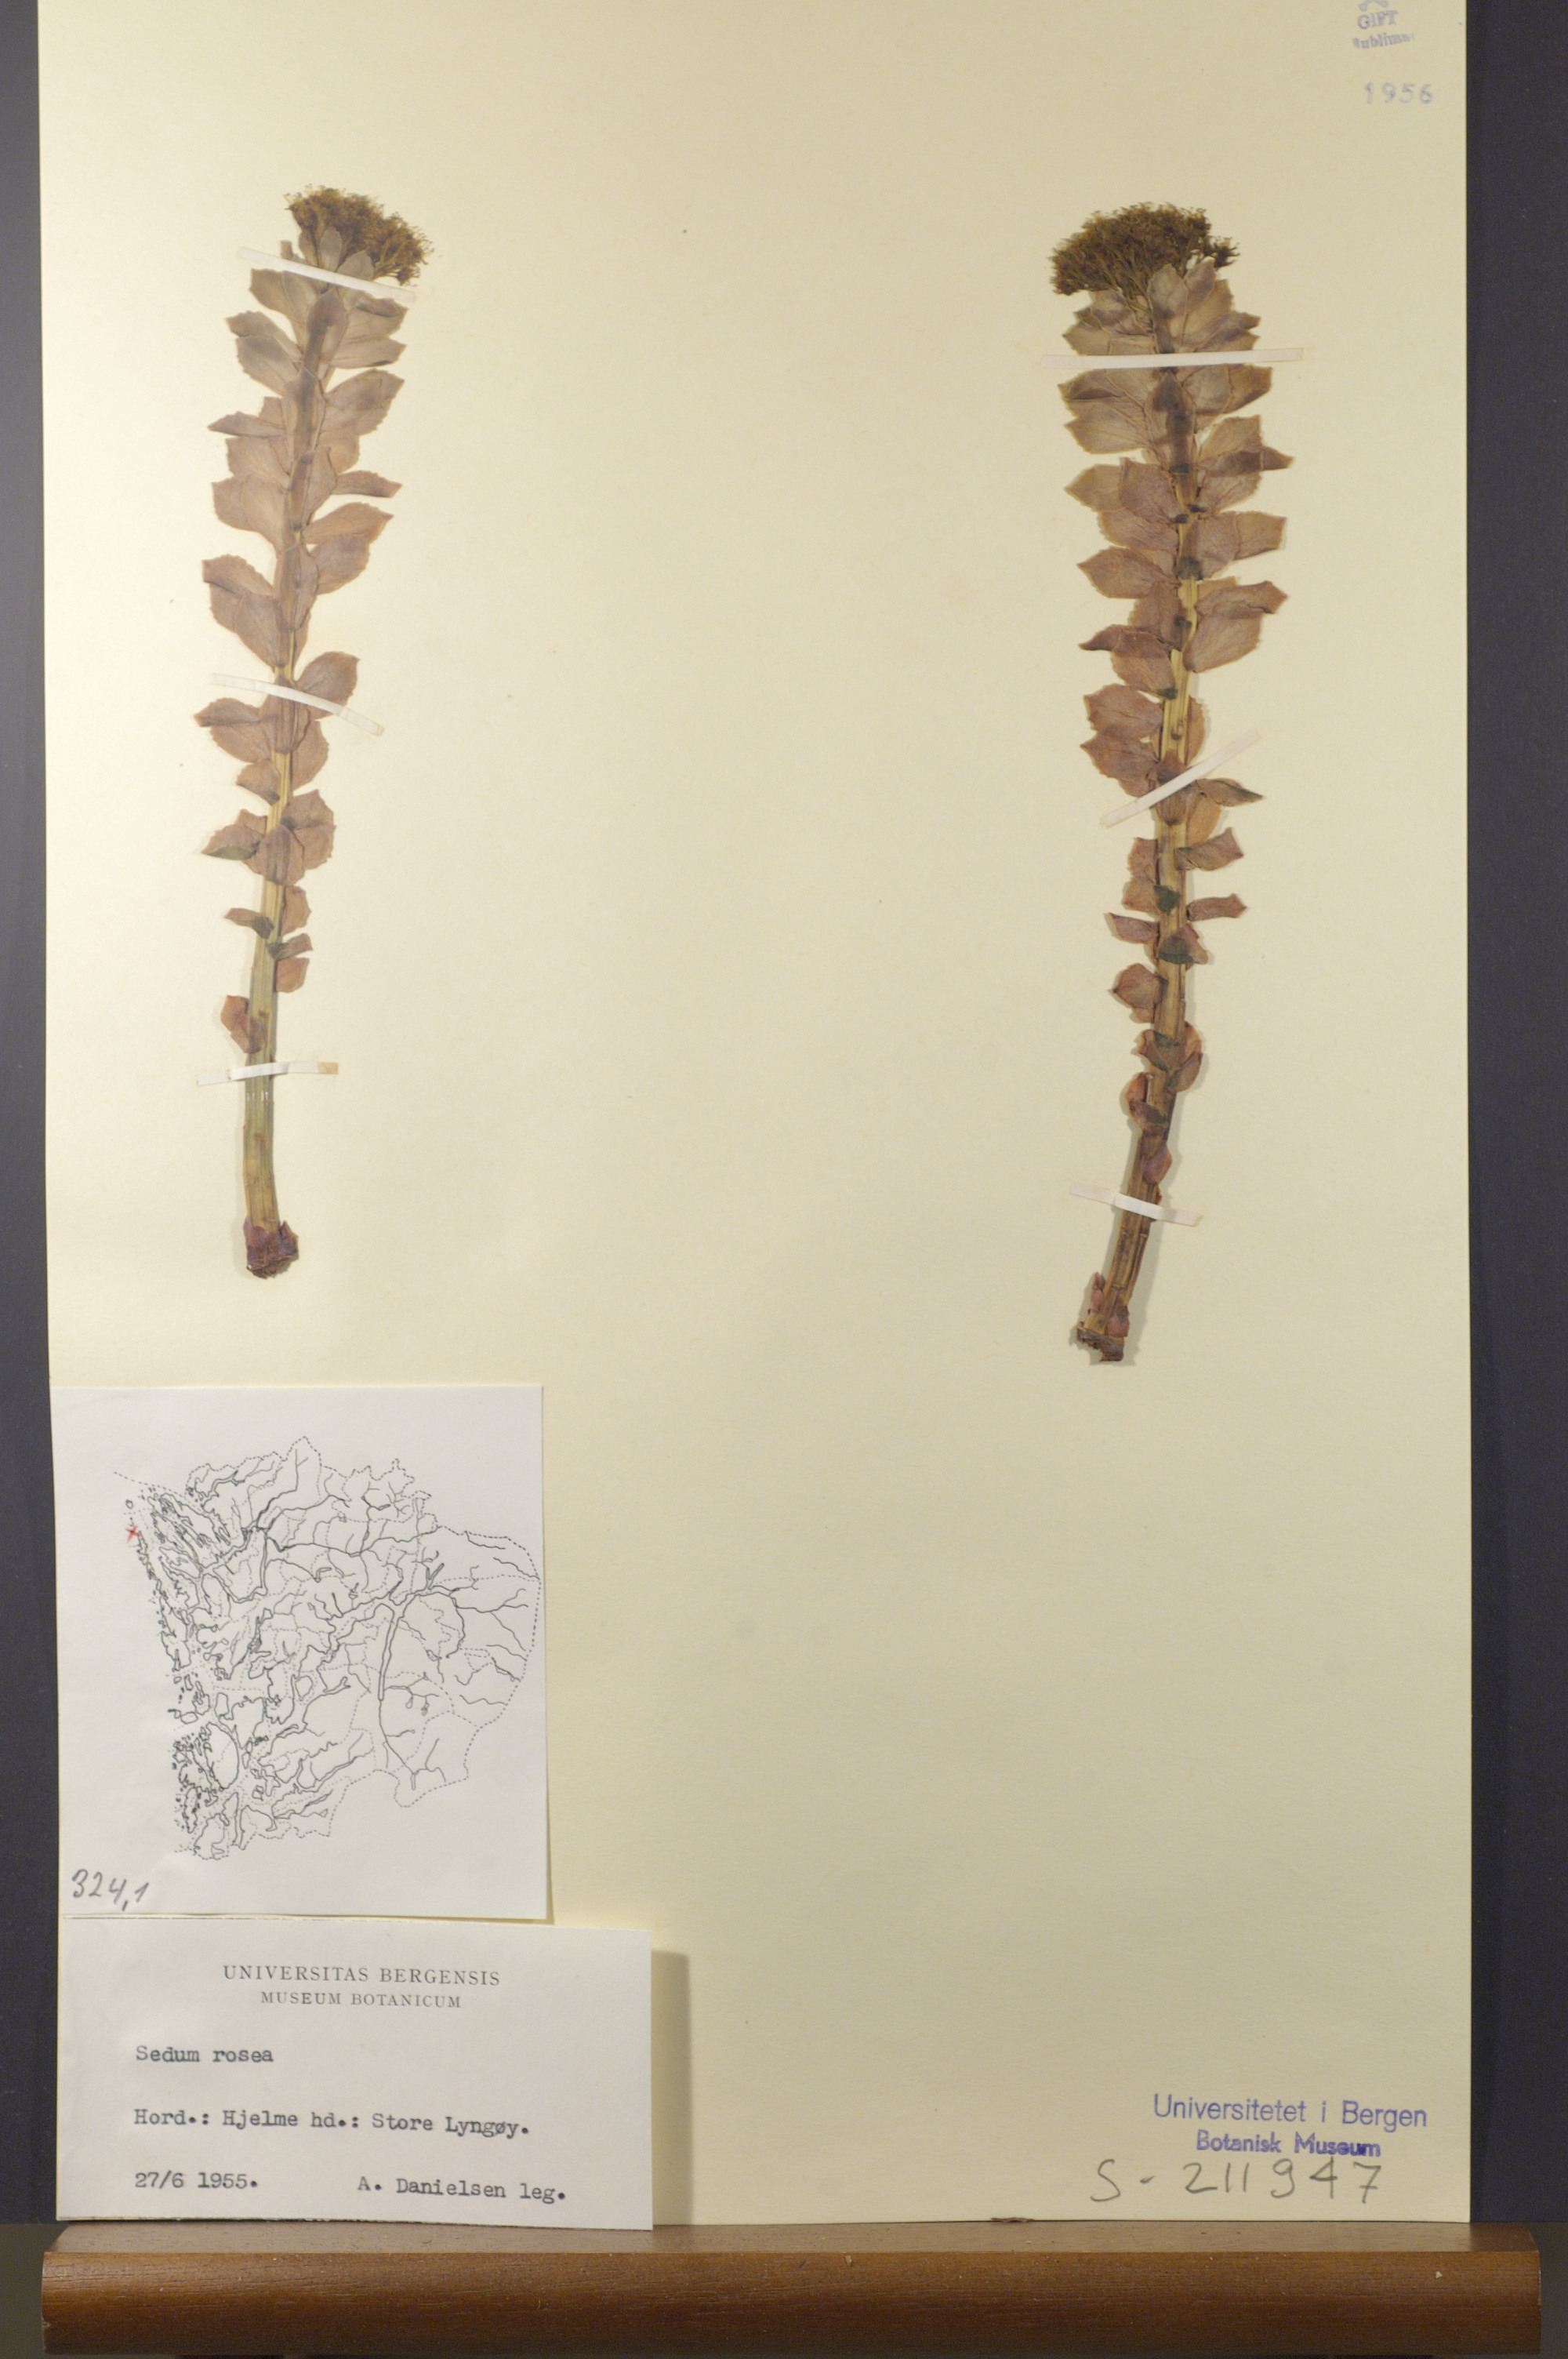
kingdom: Plantae
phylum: Tracheophyta
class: Magnoliopsida
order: Saxifragales
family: Crassulaceae
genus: Rhodiola
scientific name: Rhodiola rosea
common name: Roseroot
